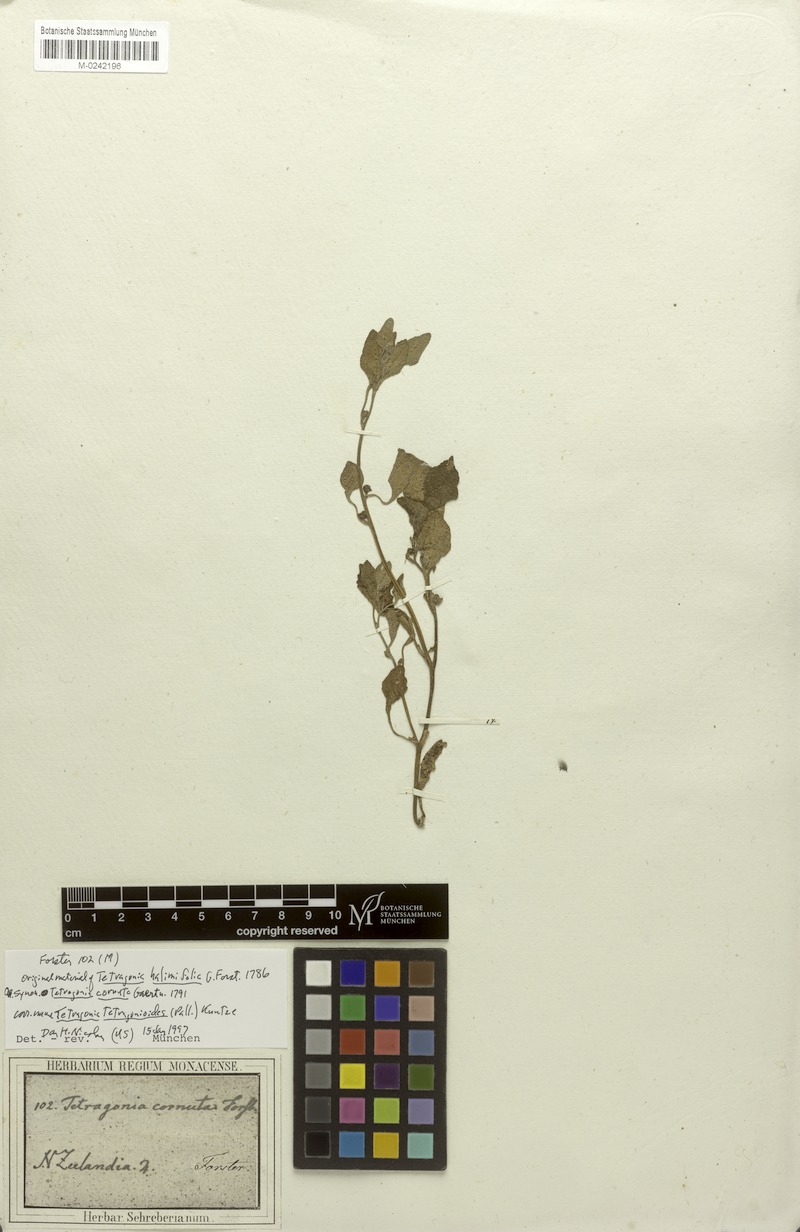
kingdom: Plantae
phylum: Tracheophyta
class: Magnoliopsida
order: Caryophyllales
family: Aizoaceae
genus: Tetragonia
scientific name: Tetragonia tetragonioides
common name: New zealand spinach
